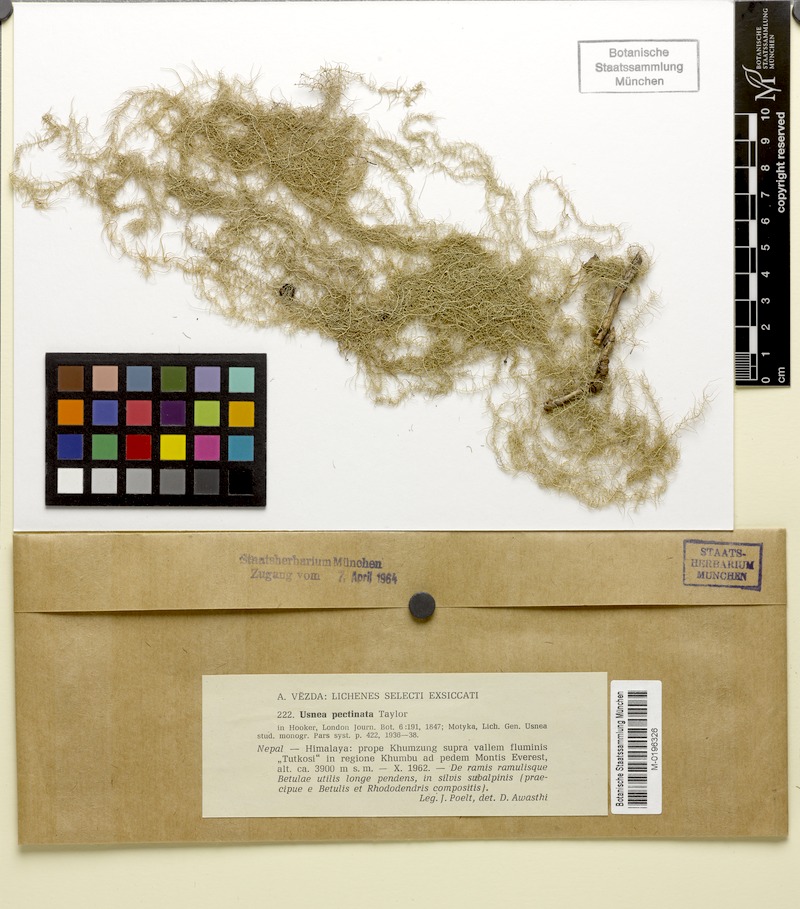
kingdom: Fungi
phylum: Ascomycota
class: Lecanoromycetes
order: Lecanorales
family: Parmeliaceae
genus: Eumitria
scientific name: Eumitria pectinata
